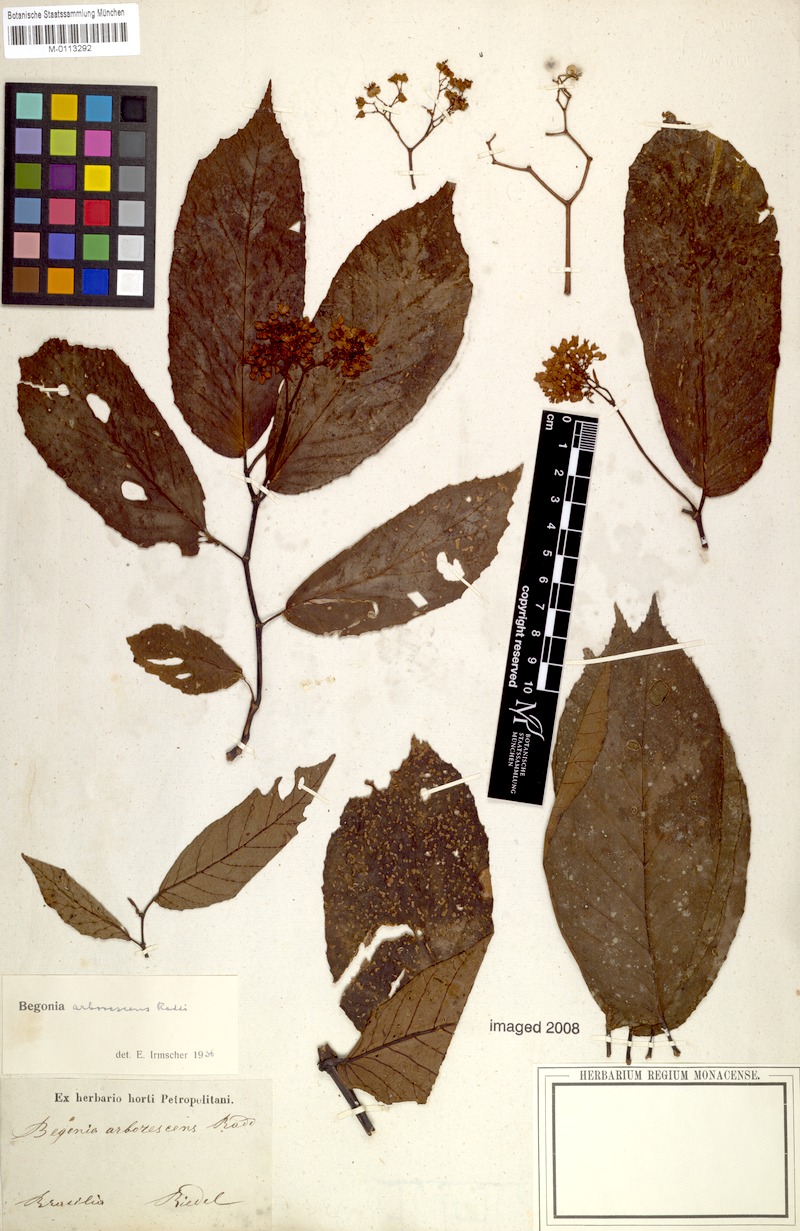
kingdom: Plantae
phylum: Tracheophyta
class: Magnoliopsida
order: Cucurbitales
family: Begoniaceae
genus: Begonia
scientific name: Begonia arborescens
